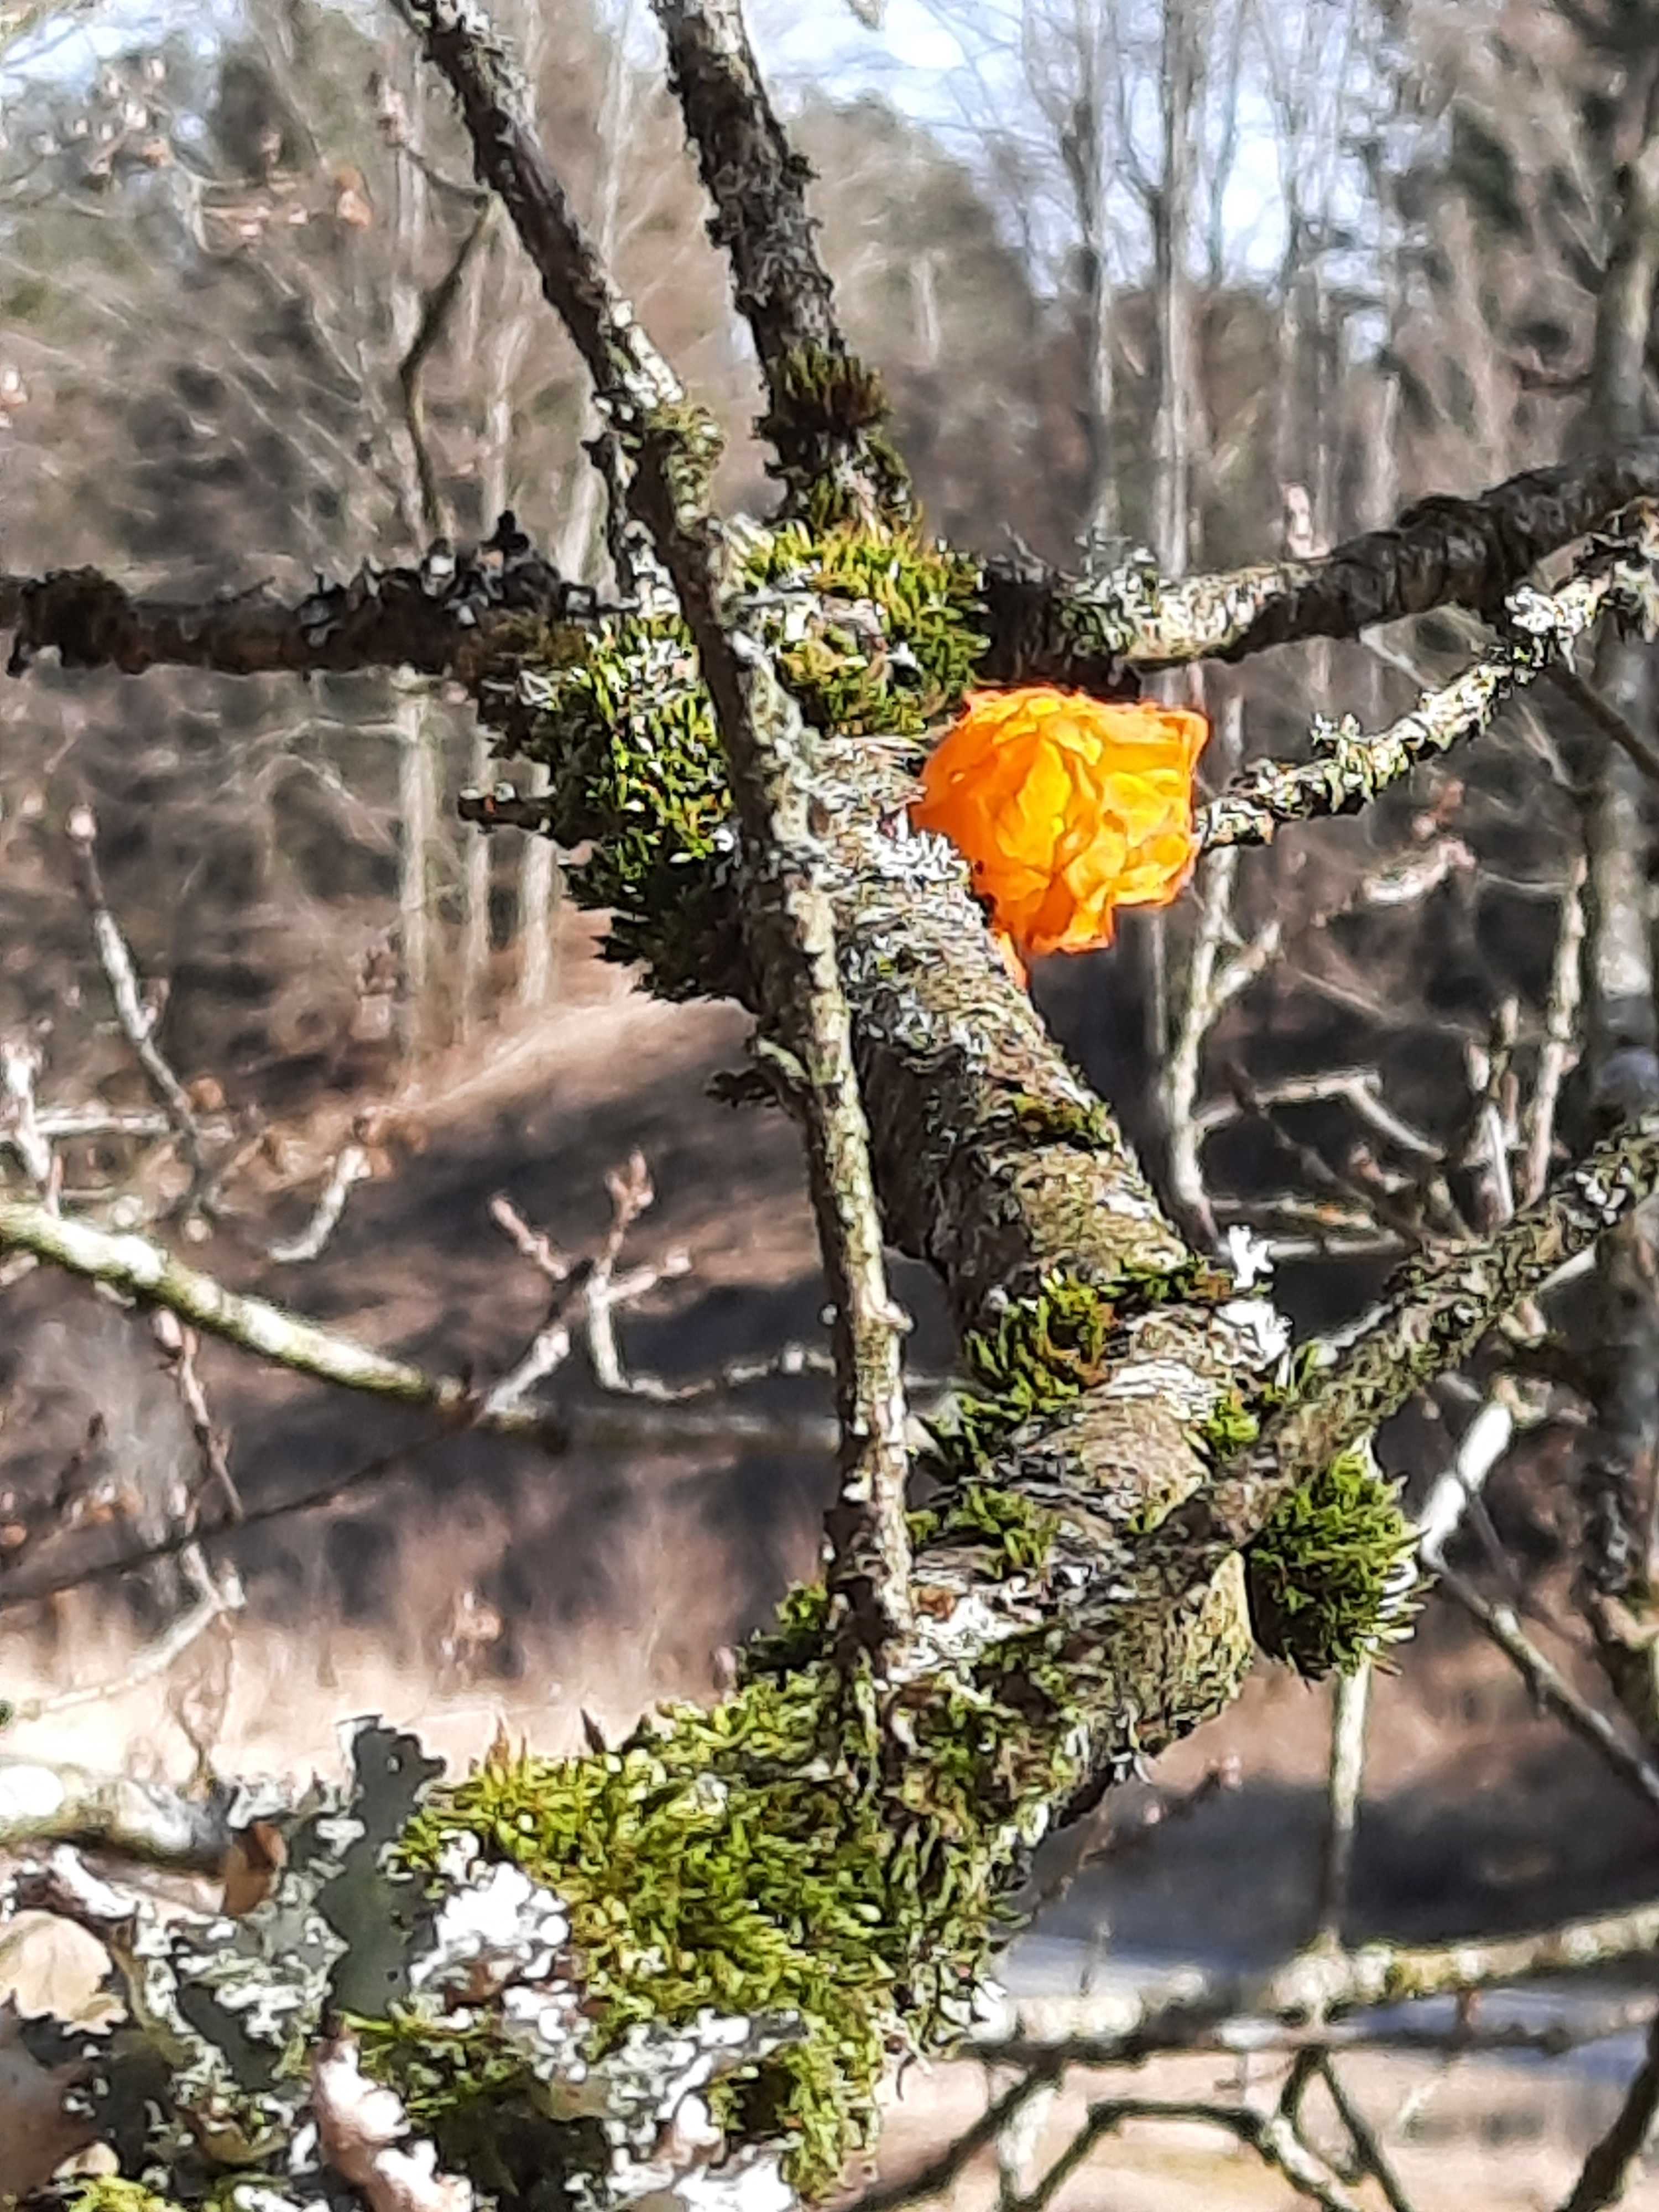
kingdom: Fungi
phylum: Basidiomycota
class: Tremellomycetes
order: Tremellales
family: Tremellaceae
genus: Tremella
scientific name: Tremella mesenterica
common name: gul bævresvamp
